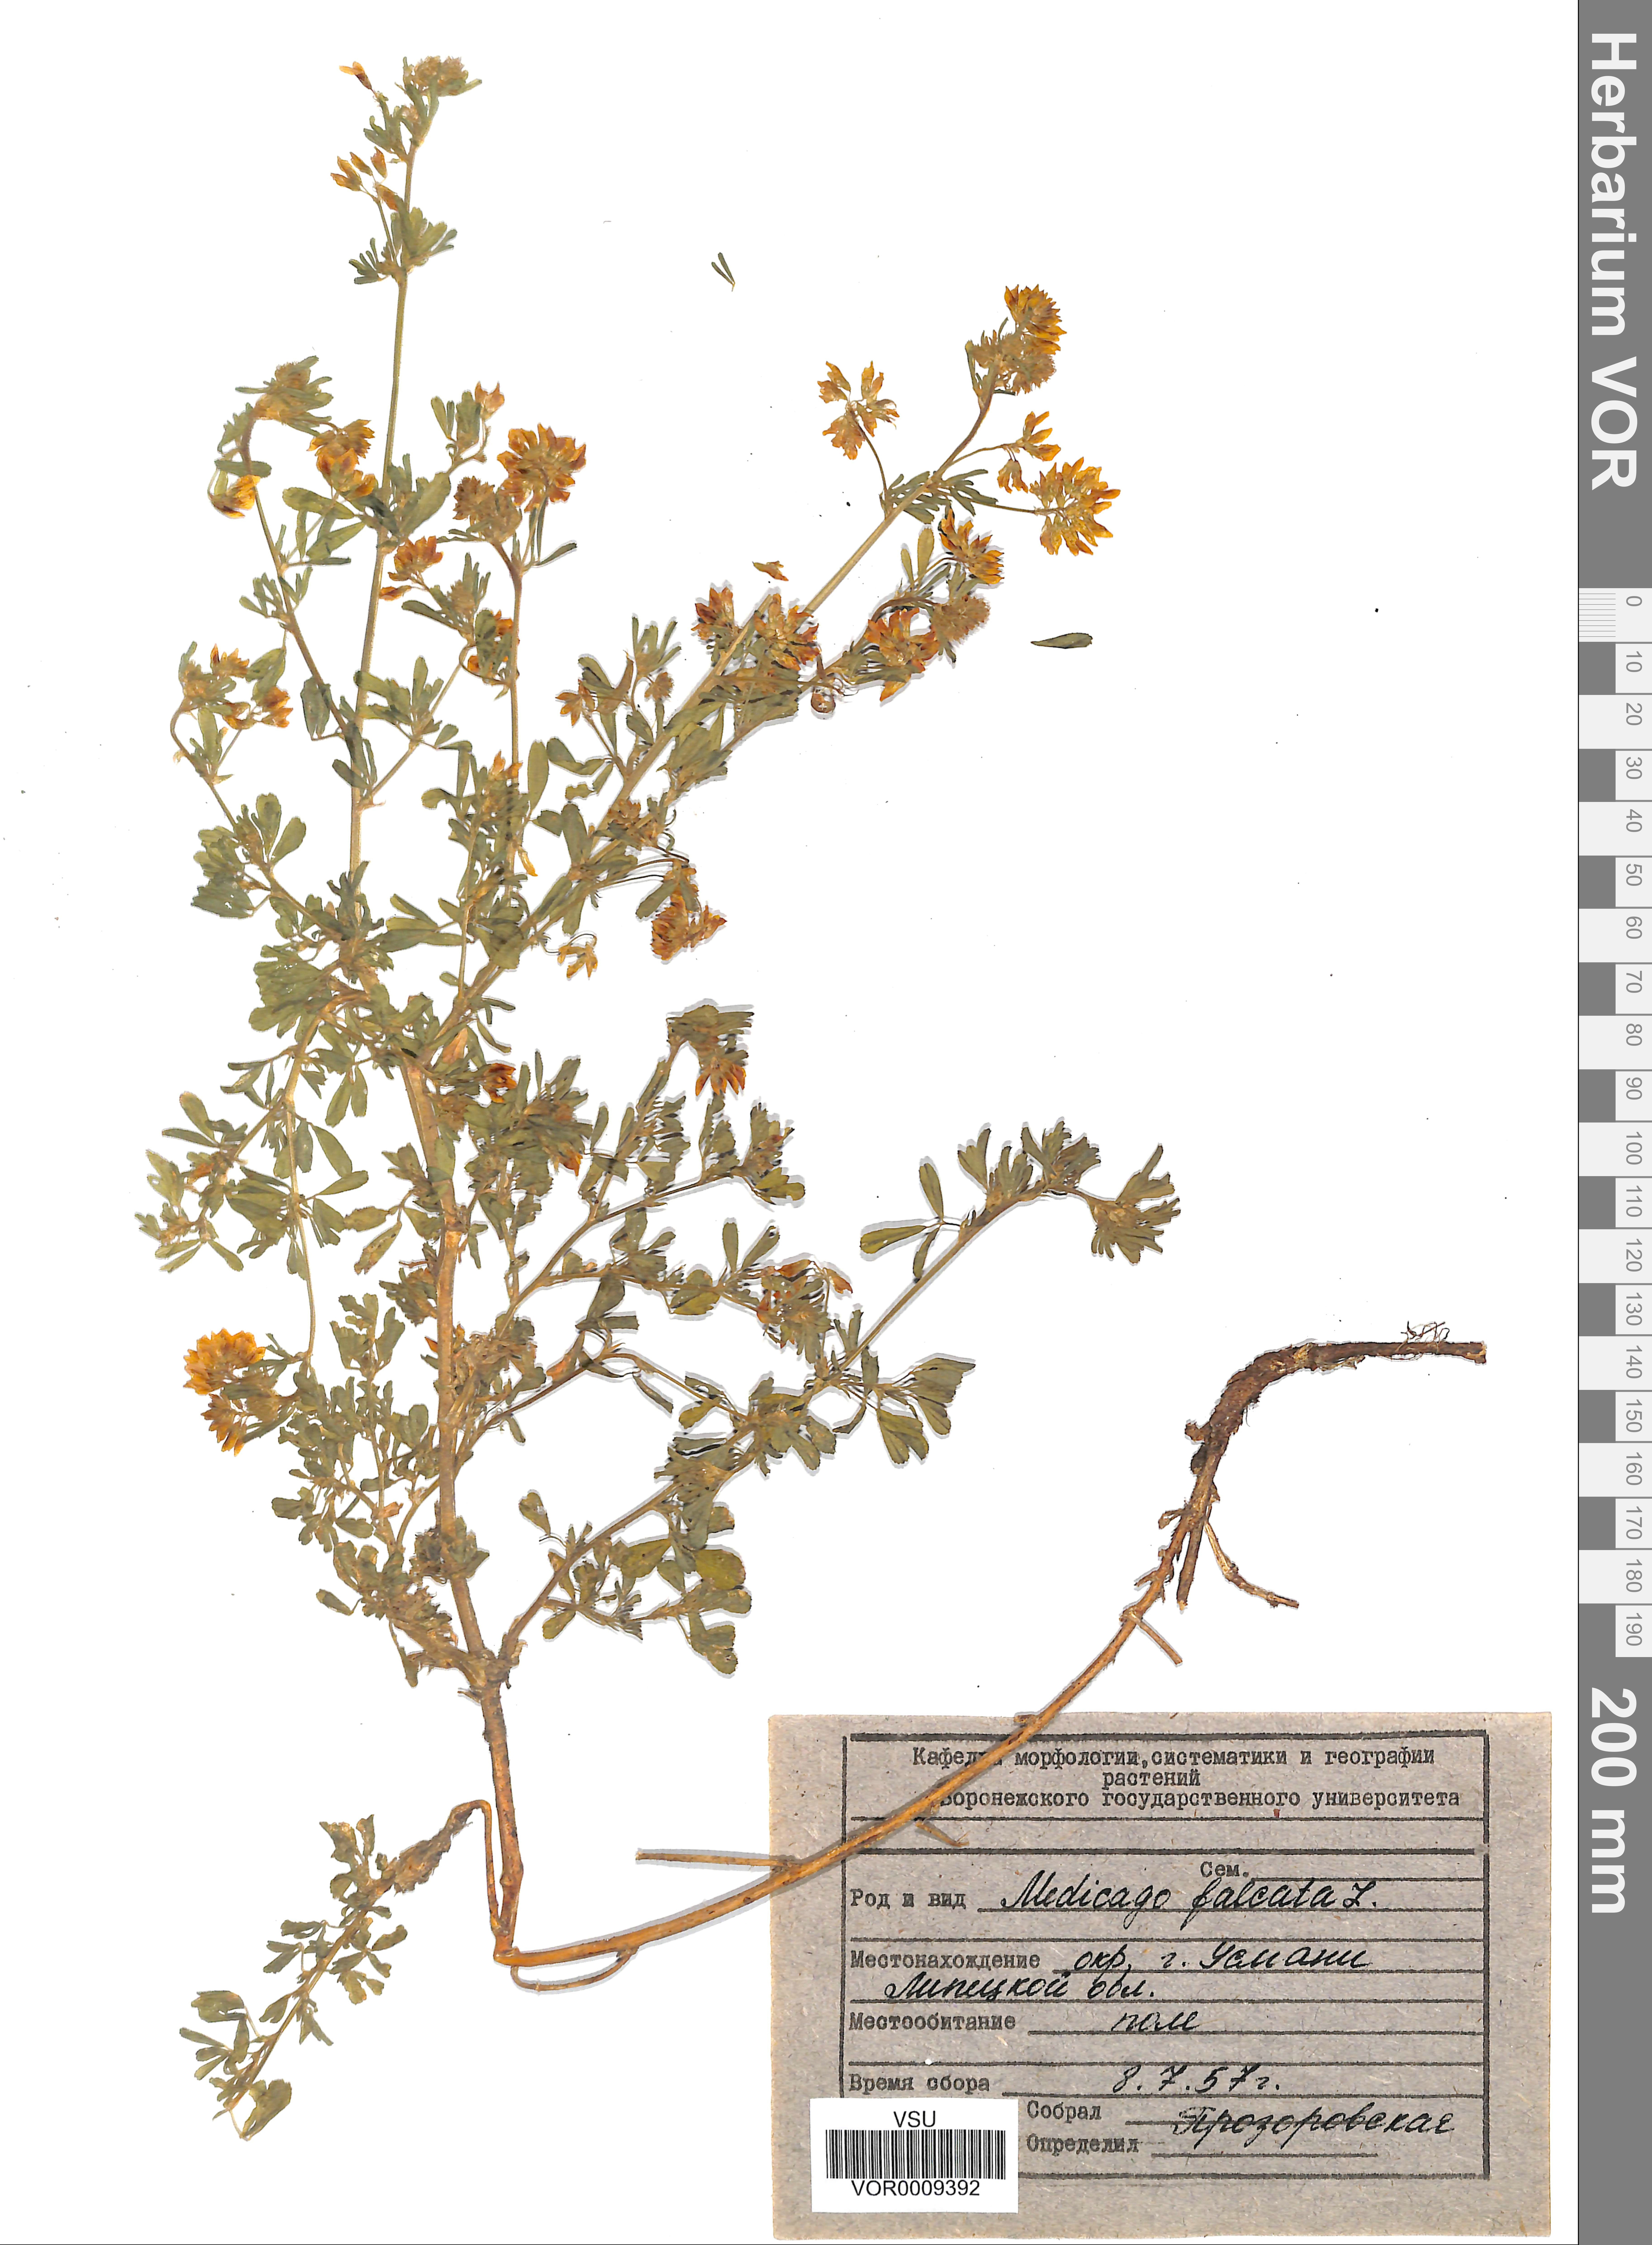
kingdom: Plantae
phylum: Tracheophyta
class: Magnoliopsida
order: Fabales
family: Fabaceae
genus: Medicago
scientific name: Medicago falcata
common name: Sickle medick
